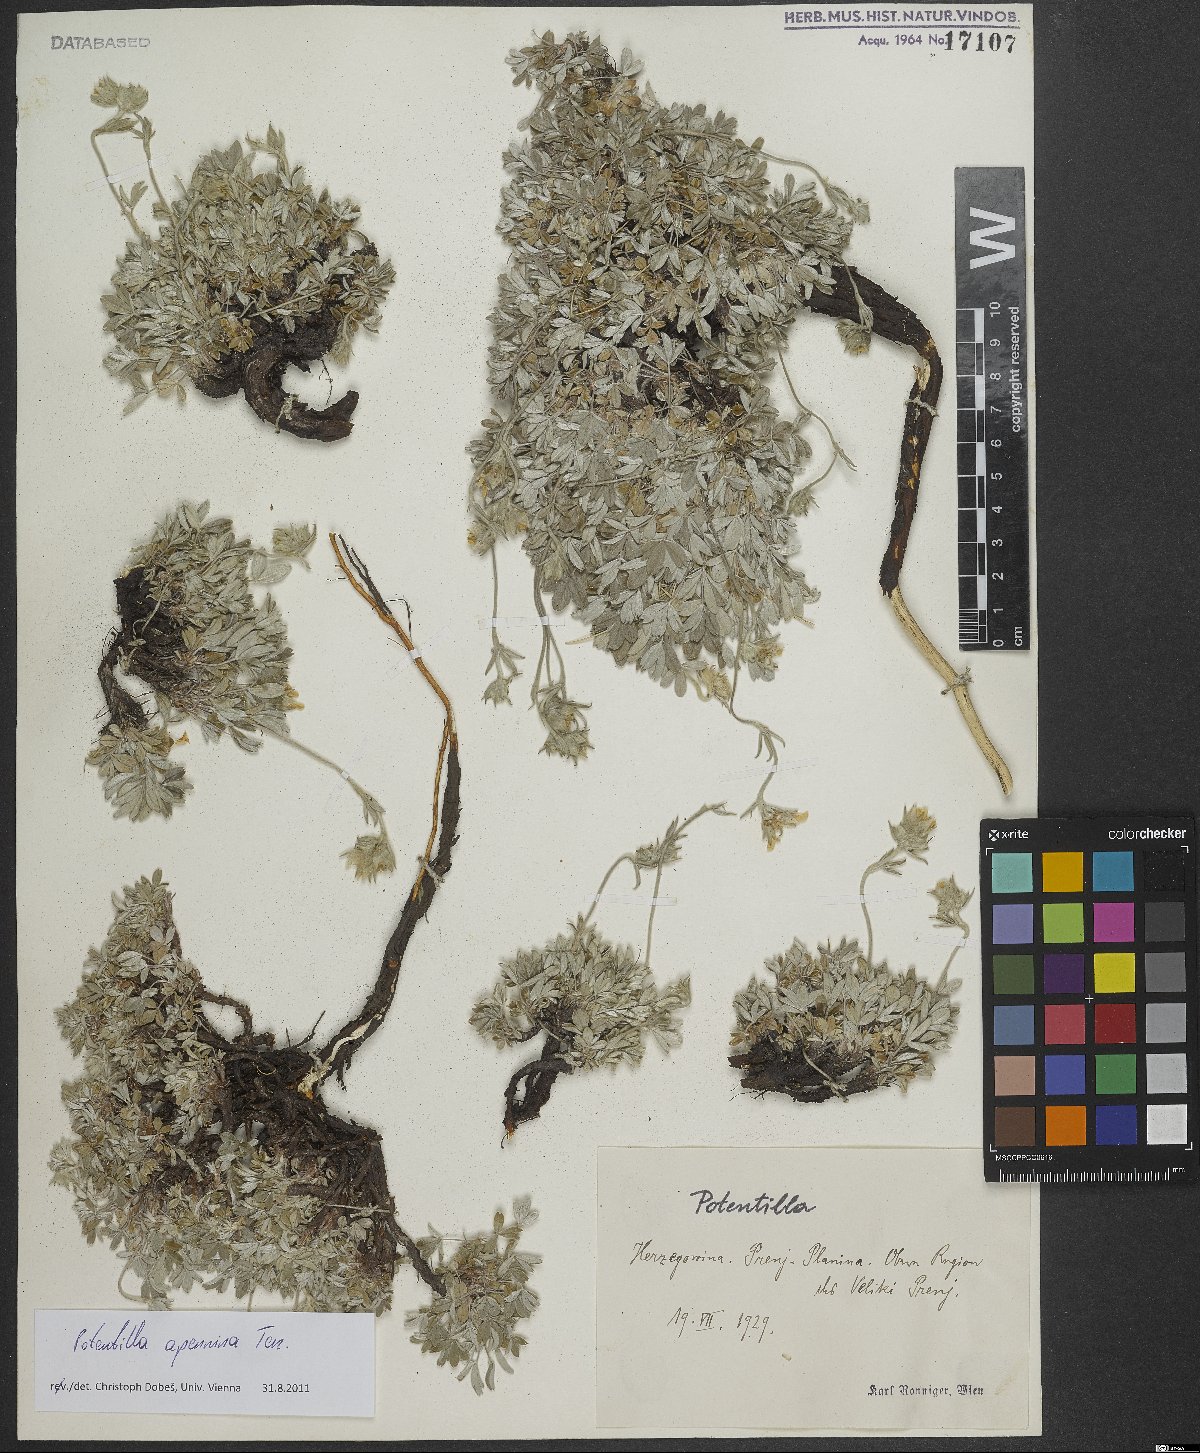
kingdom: Plantae
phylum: Tracheophyta
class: Magnoliopsida
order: Rosales
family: Rosaceae
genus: Potentilla
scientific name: Potentilla apennina
